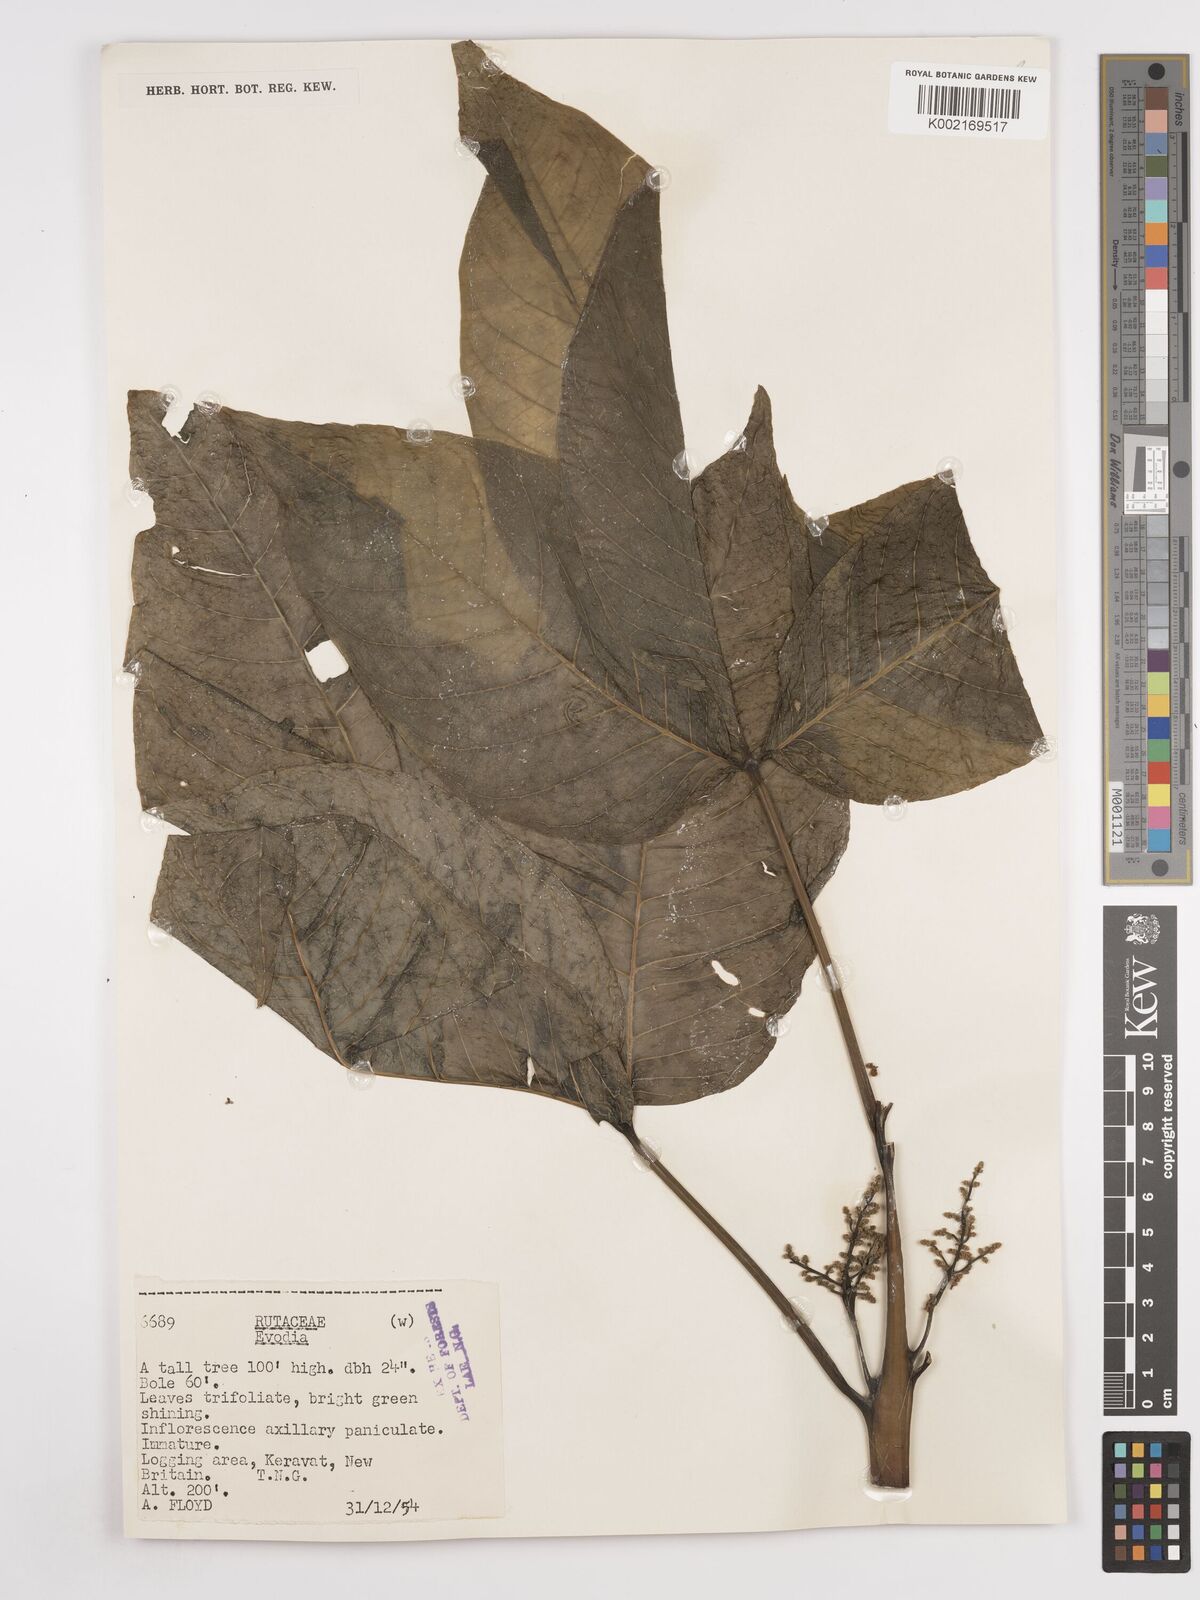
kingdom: Plantae
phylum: Tracheophyta
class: Magnoliopsida
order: Sapindales
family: Rutaceae
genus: Euodia
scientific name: Euodia
